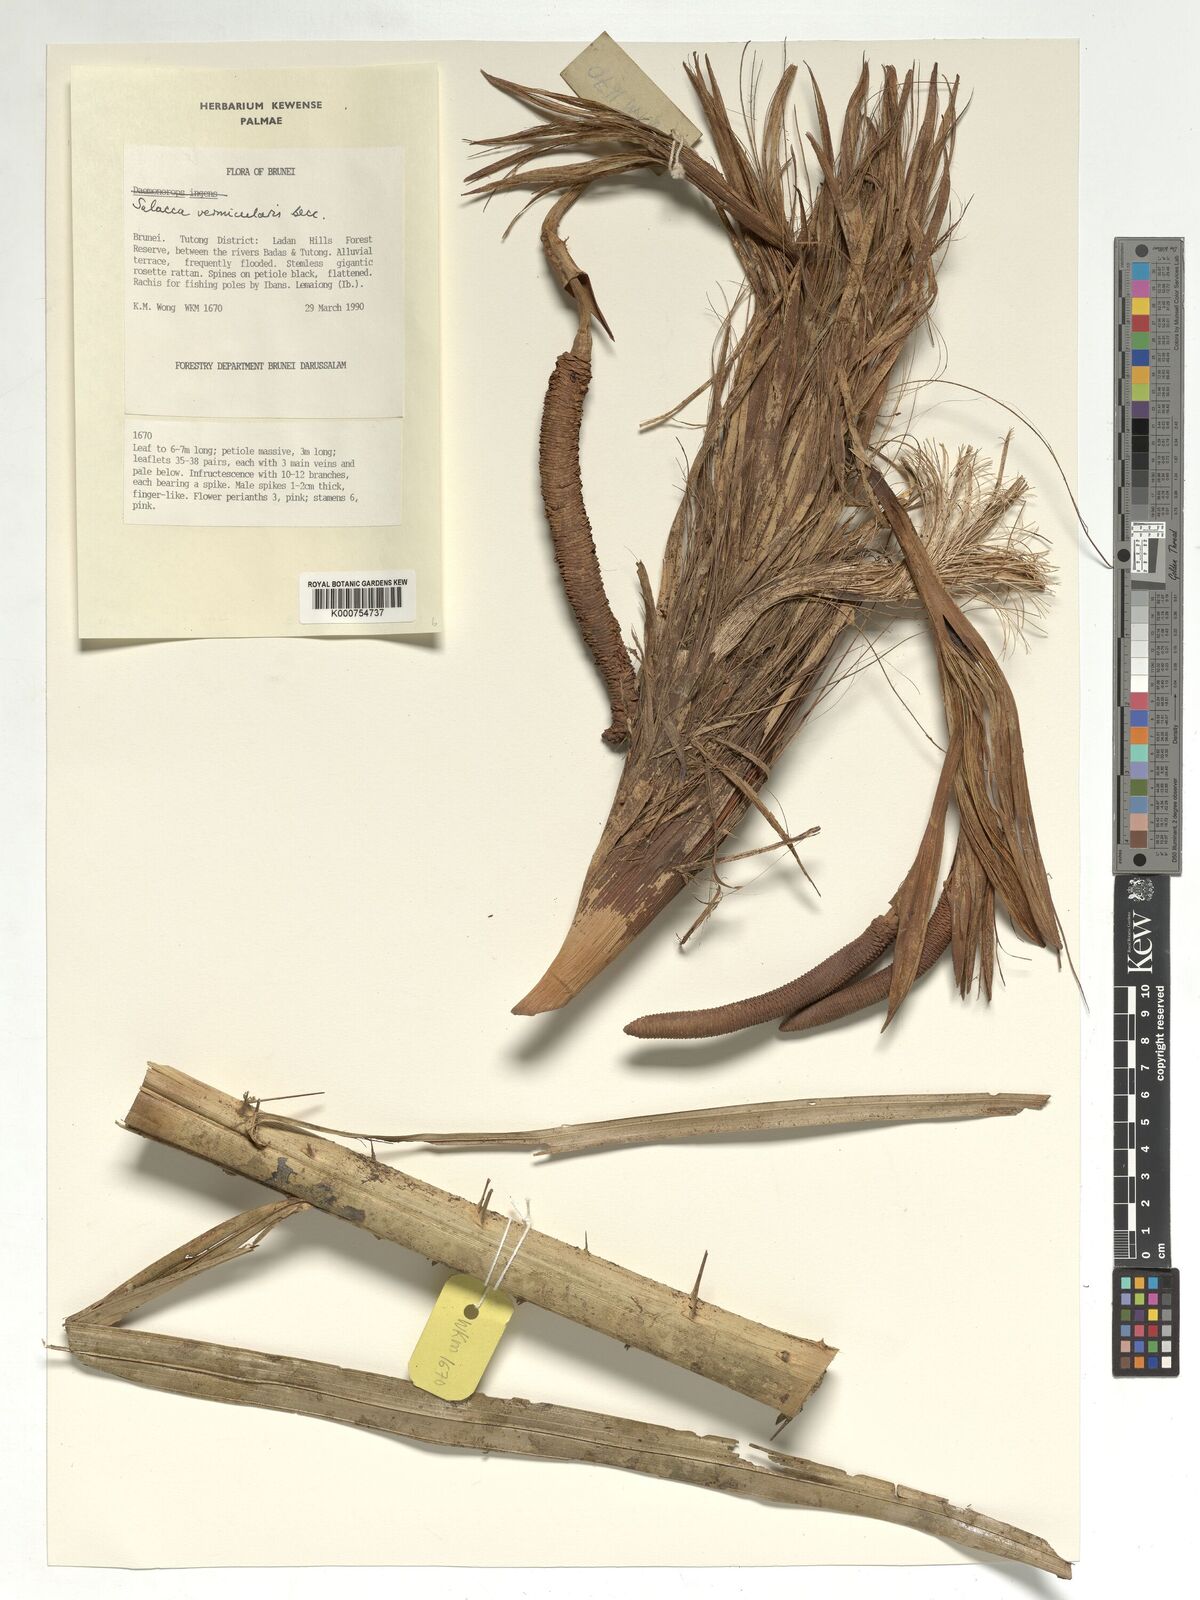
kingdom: Plantae
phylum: Tracheophyta
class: Liliopsida
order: Arecales
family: Arecaceae
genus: Salacca
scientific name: Salacca vermicularis
